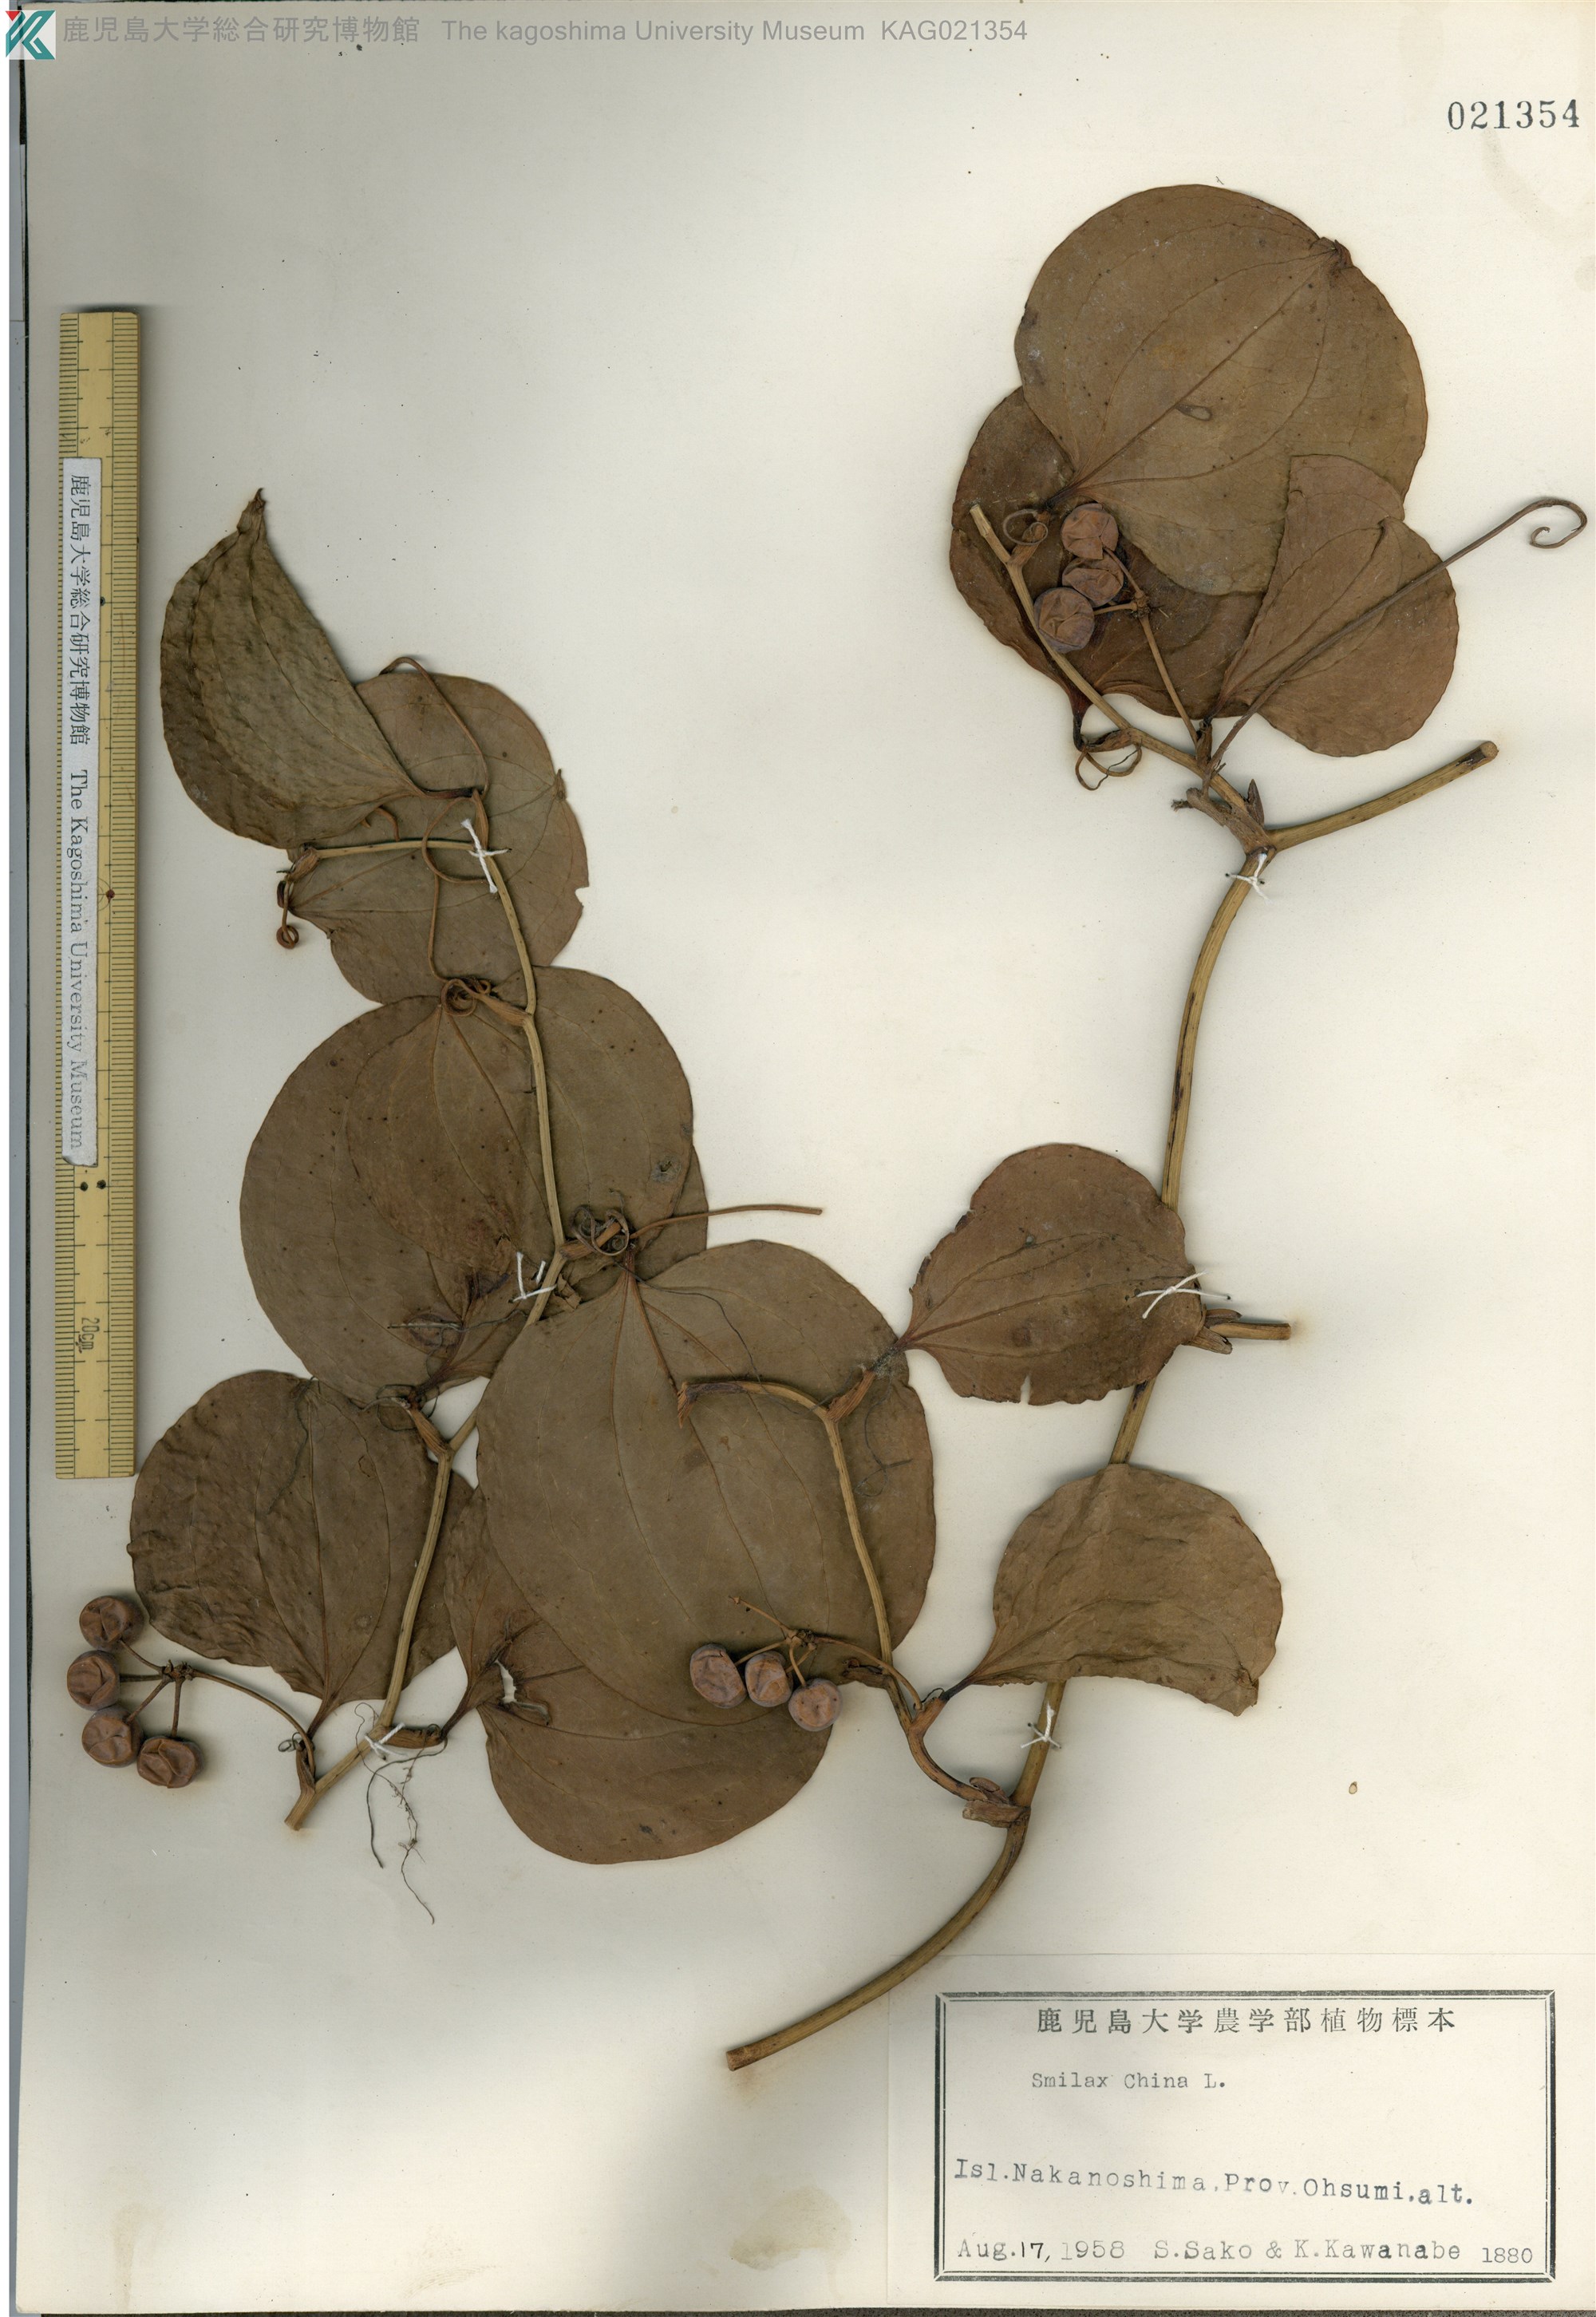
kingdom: Plantae
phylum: Tracheophyta
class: Liliopsida
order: Liliales
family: Smilacaceae
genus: Smilax
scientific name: Smilax sebeana
